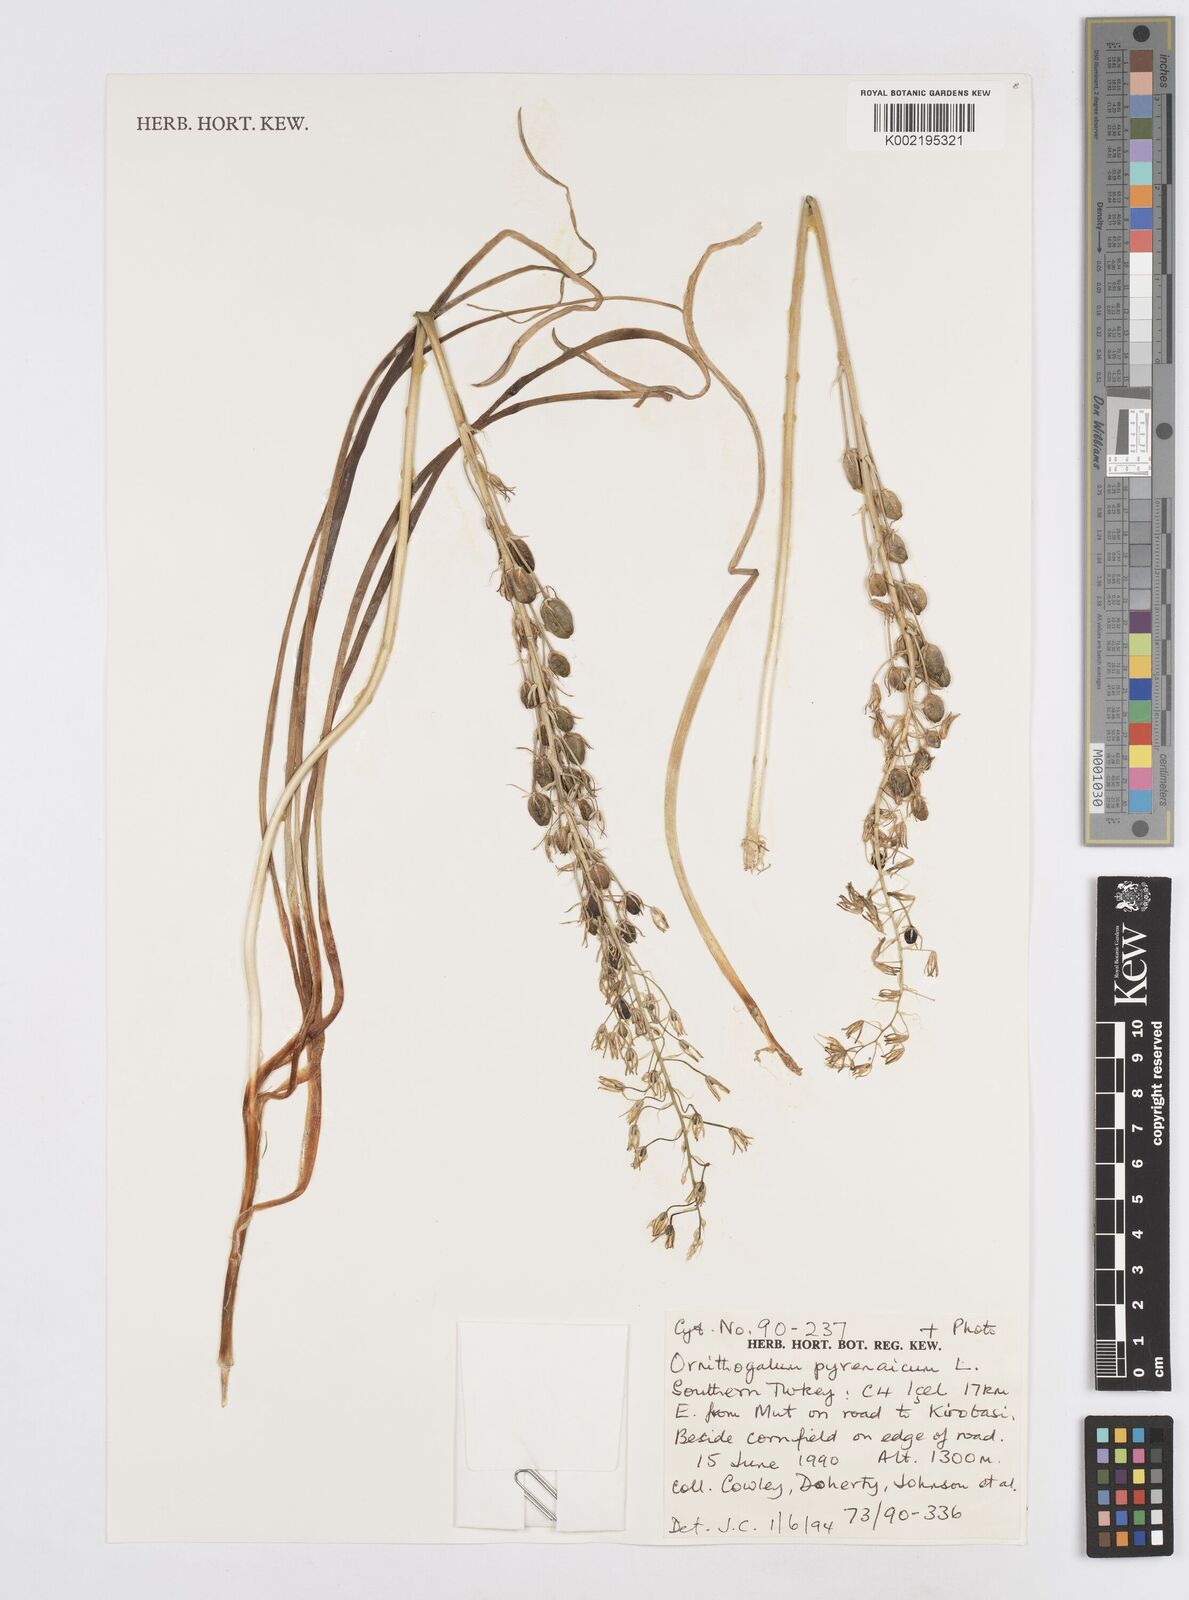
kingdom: Plantae
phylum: Tracheophyta
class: Liliopsida
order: Asparagales
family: Asparagaceae
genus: Ornithogalum
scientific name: Ornithogalum pyrenaicum
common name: Spiked star-of-bethlehem
